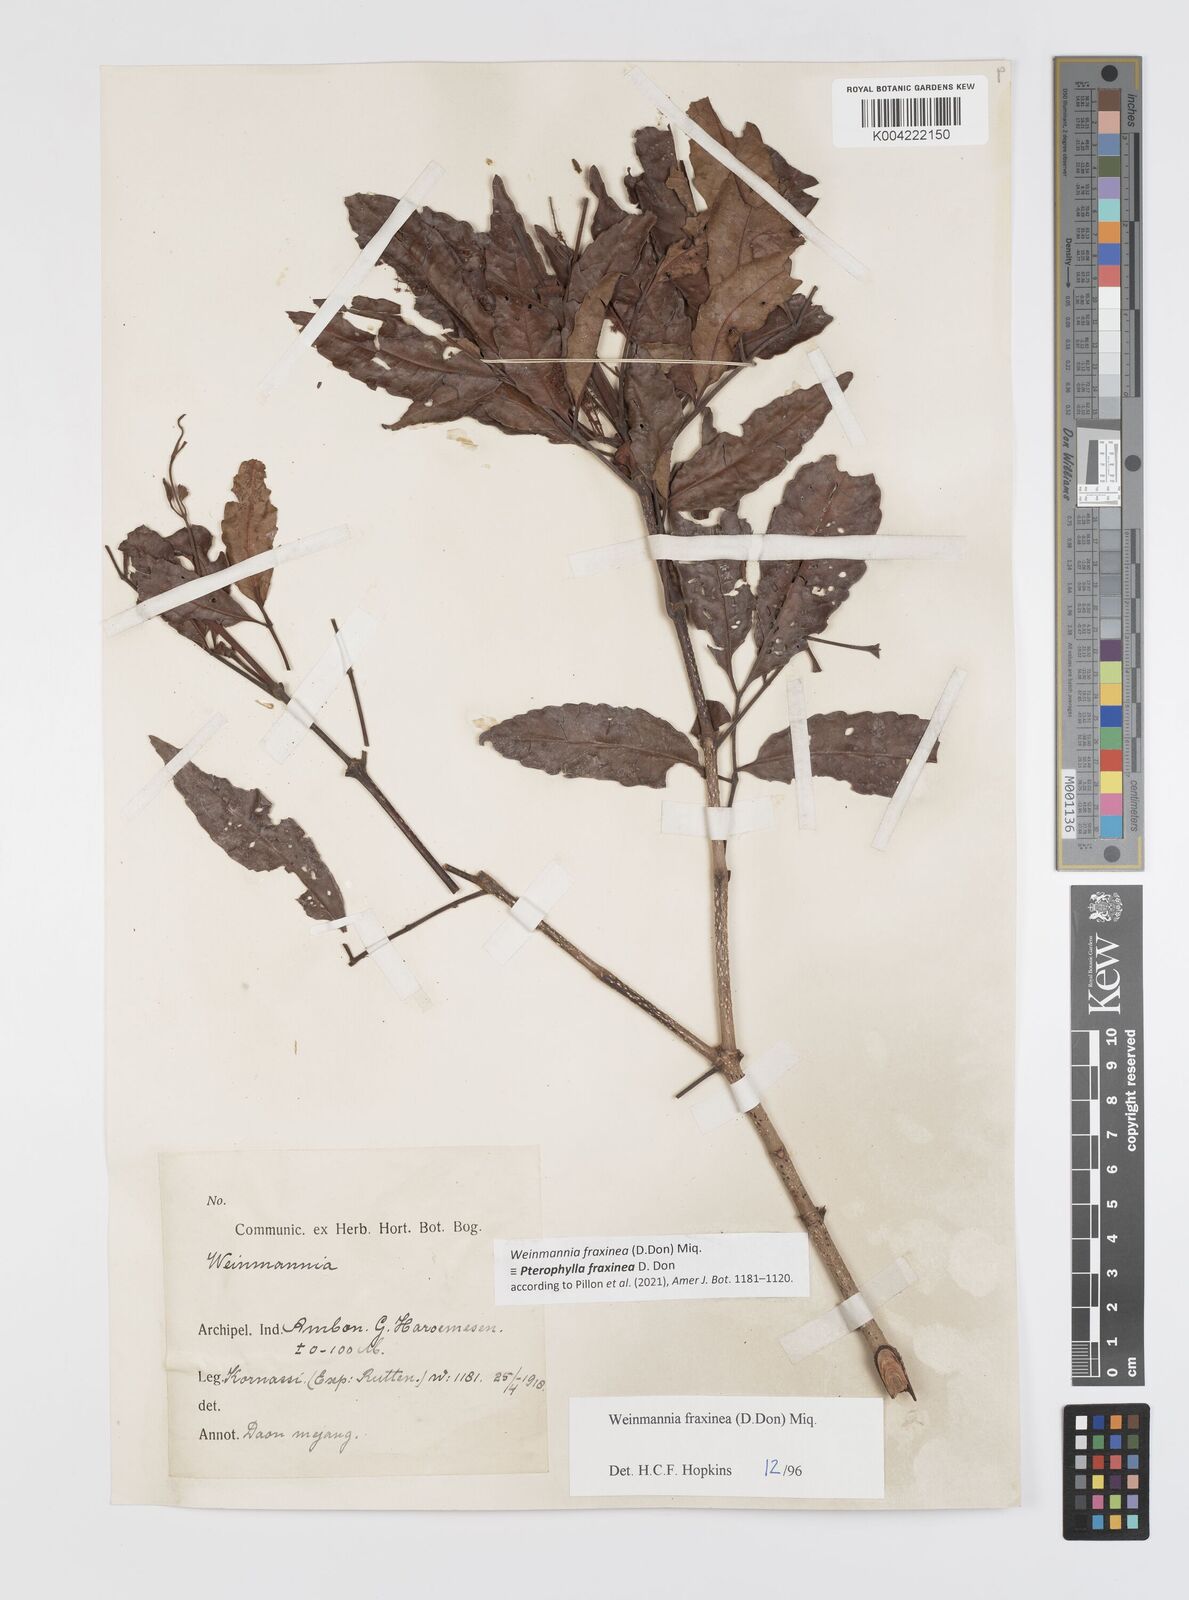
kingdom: Plantae
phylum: Tracheophyta
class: Magnoliopsida
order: Oxalidales
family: Cunoniaceae
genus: Pterophylla
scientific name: Pterophylla fraxinea
